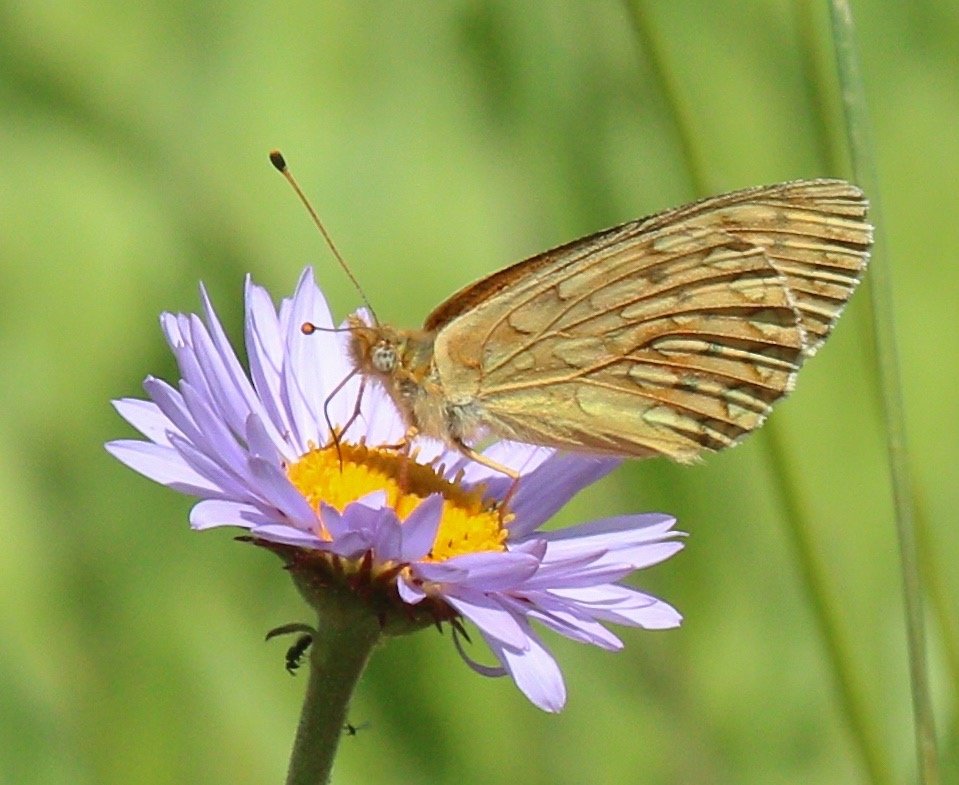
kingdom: Animalia
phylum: Arthropoda
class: Insecta
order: Lepidoptera
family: Nymphalidae
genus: Speyeria
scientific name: Speyeria mormonia
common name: Mormon Fritillary
